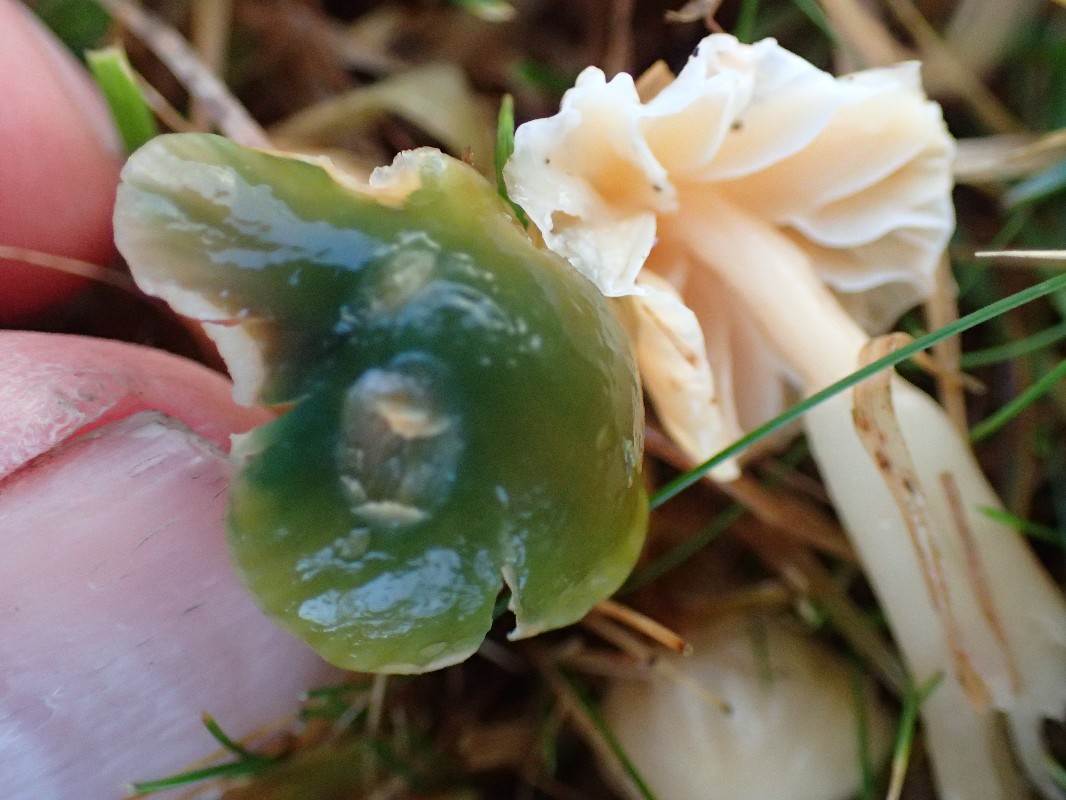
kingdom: Fungi
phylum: Basidiomycota
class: Agaricomycetes
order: Agaricales
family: Hygrophoraceae
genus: Gliophorus
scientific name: Gliophorus psittacinus
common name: papegøje-vokshat
